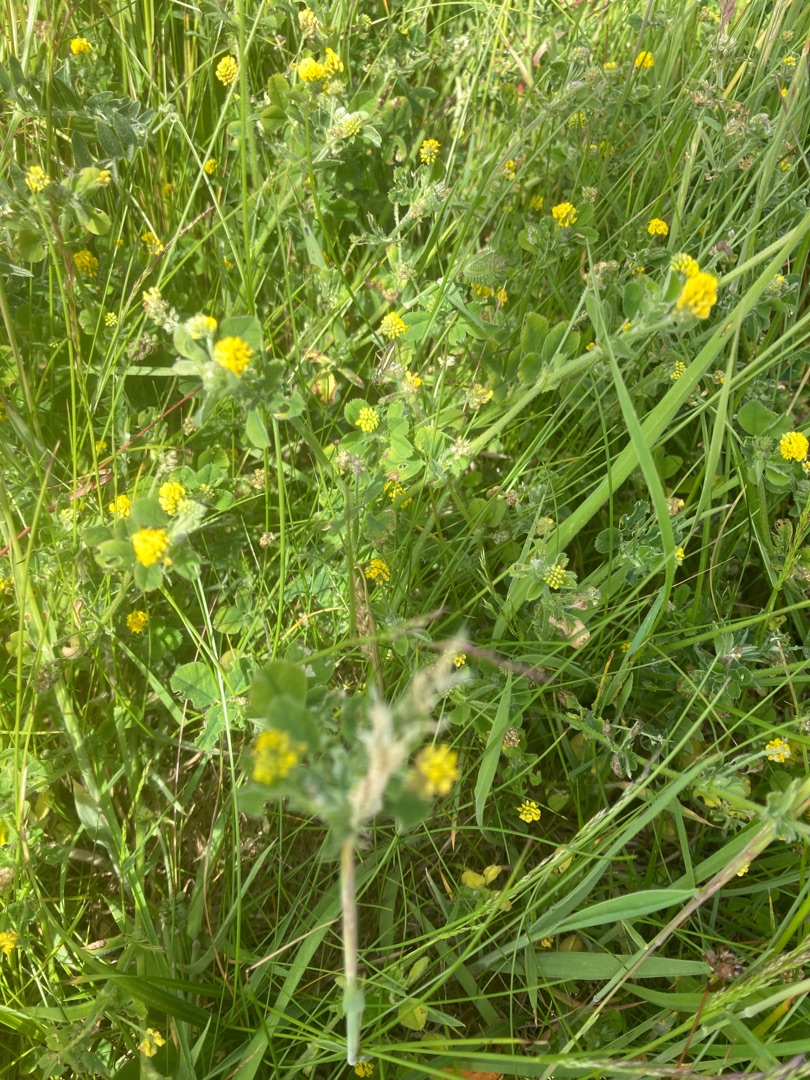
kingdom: Plantae
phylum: Tracheophyta
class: Magnoliopsida
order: Fabales
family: Fabaceae
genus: Medicago
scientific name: Medicago lupulina
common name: Humle-sneglebælg
